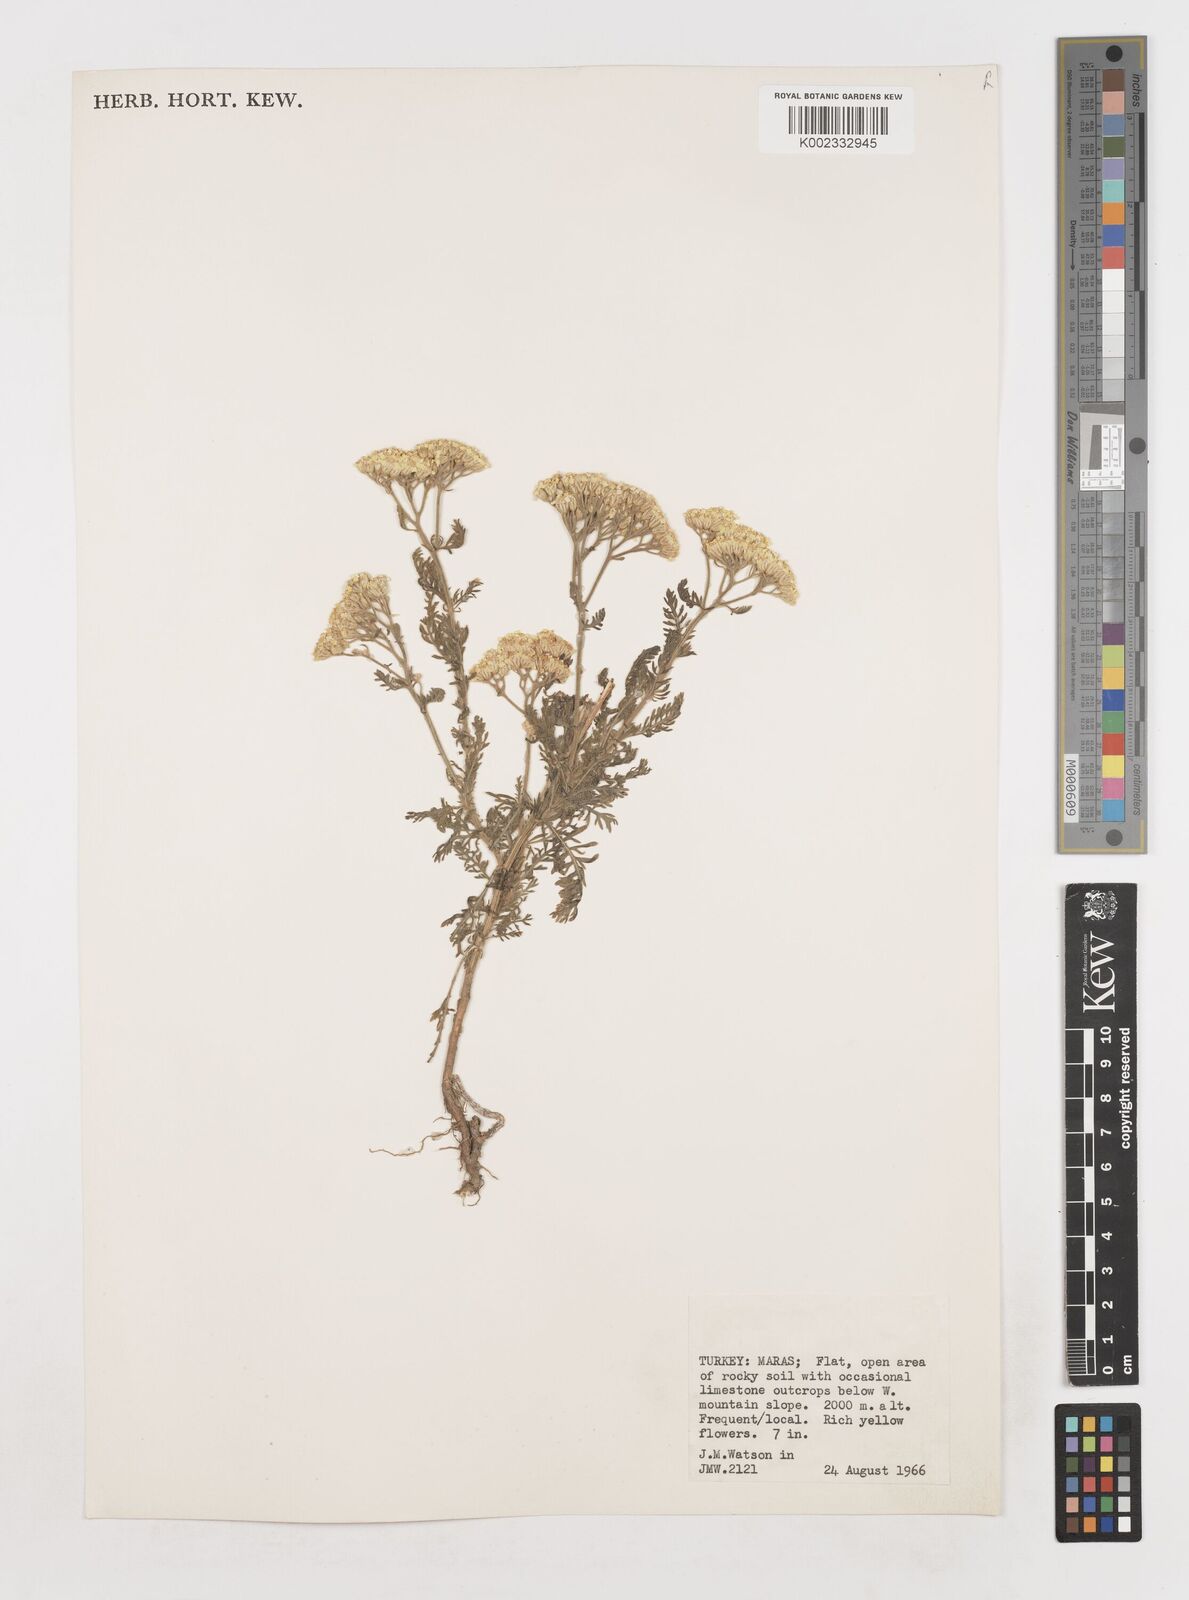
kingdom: Plantae
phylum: Tracheophyta
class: Magnoliopsida
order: Asterales
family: Asteraceae
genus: Achillea
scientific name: Achillea arabica
